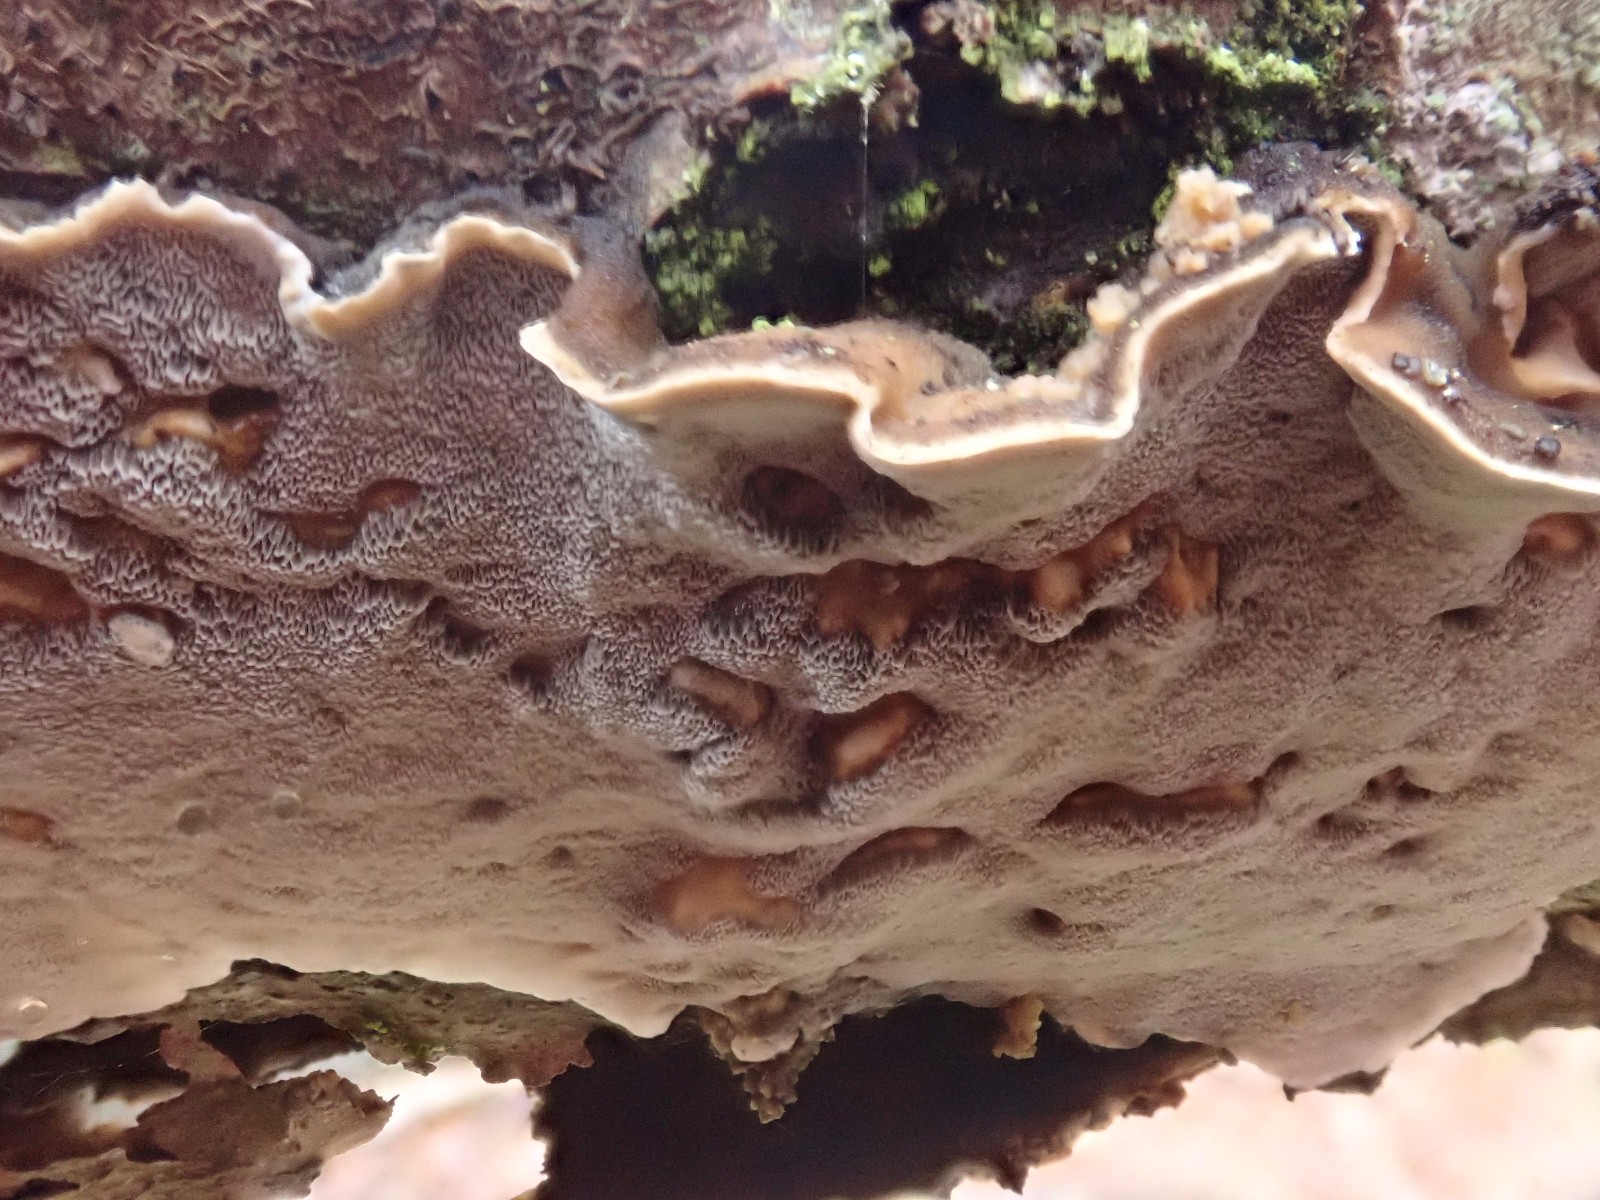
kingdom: Fungi
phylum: Basidiomycota
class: Agaricomycetes
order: Polyporales
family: Phanerochaetaceae
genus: Bjerkandera
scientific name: Bjerkandera adusta
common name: sveden sodporesvamp
